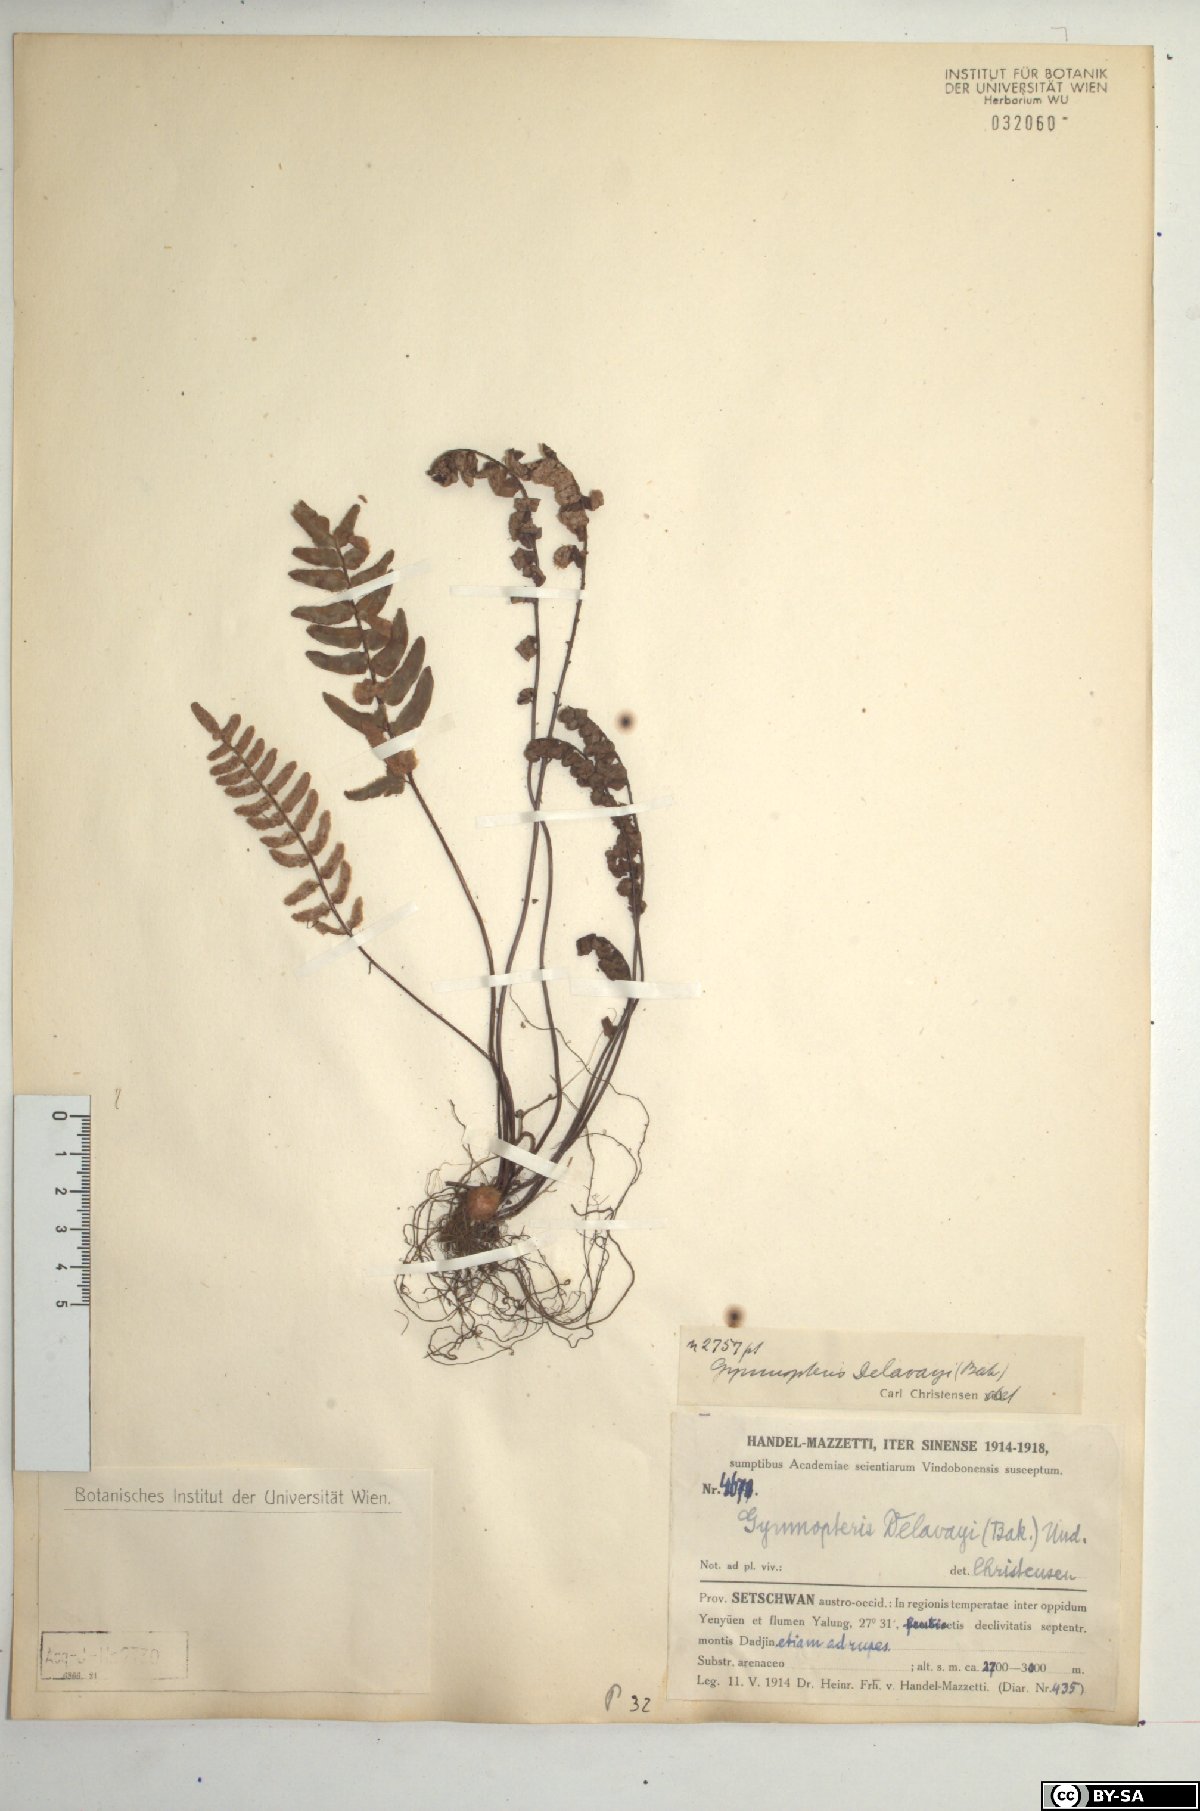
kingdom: Plantae
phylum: Tracheophyta
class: Polypodiopsida
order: Polypodiales
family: Pteridaceae
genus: Paragymnopteris
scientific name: Paragymnopteris delavayi
